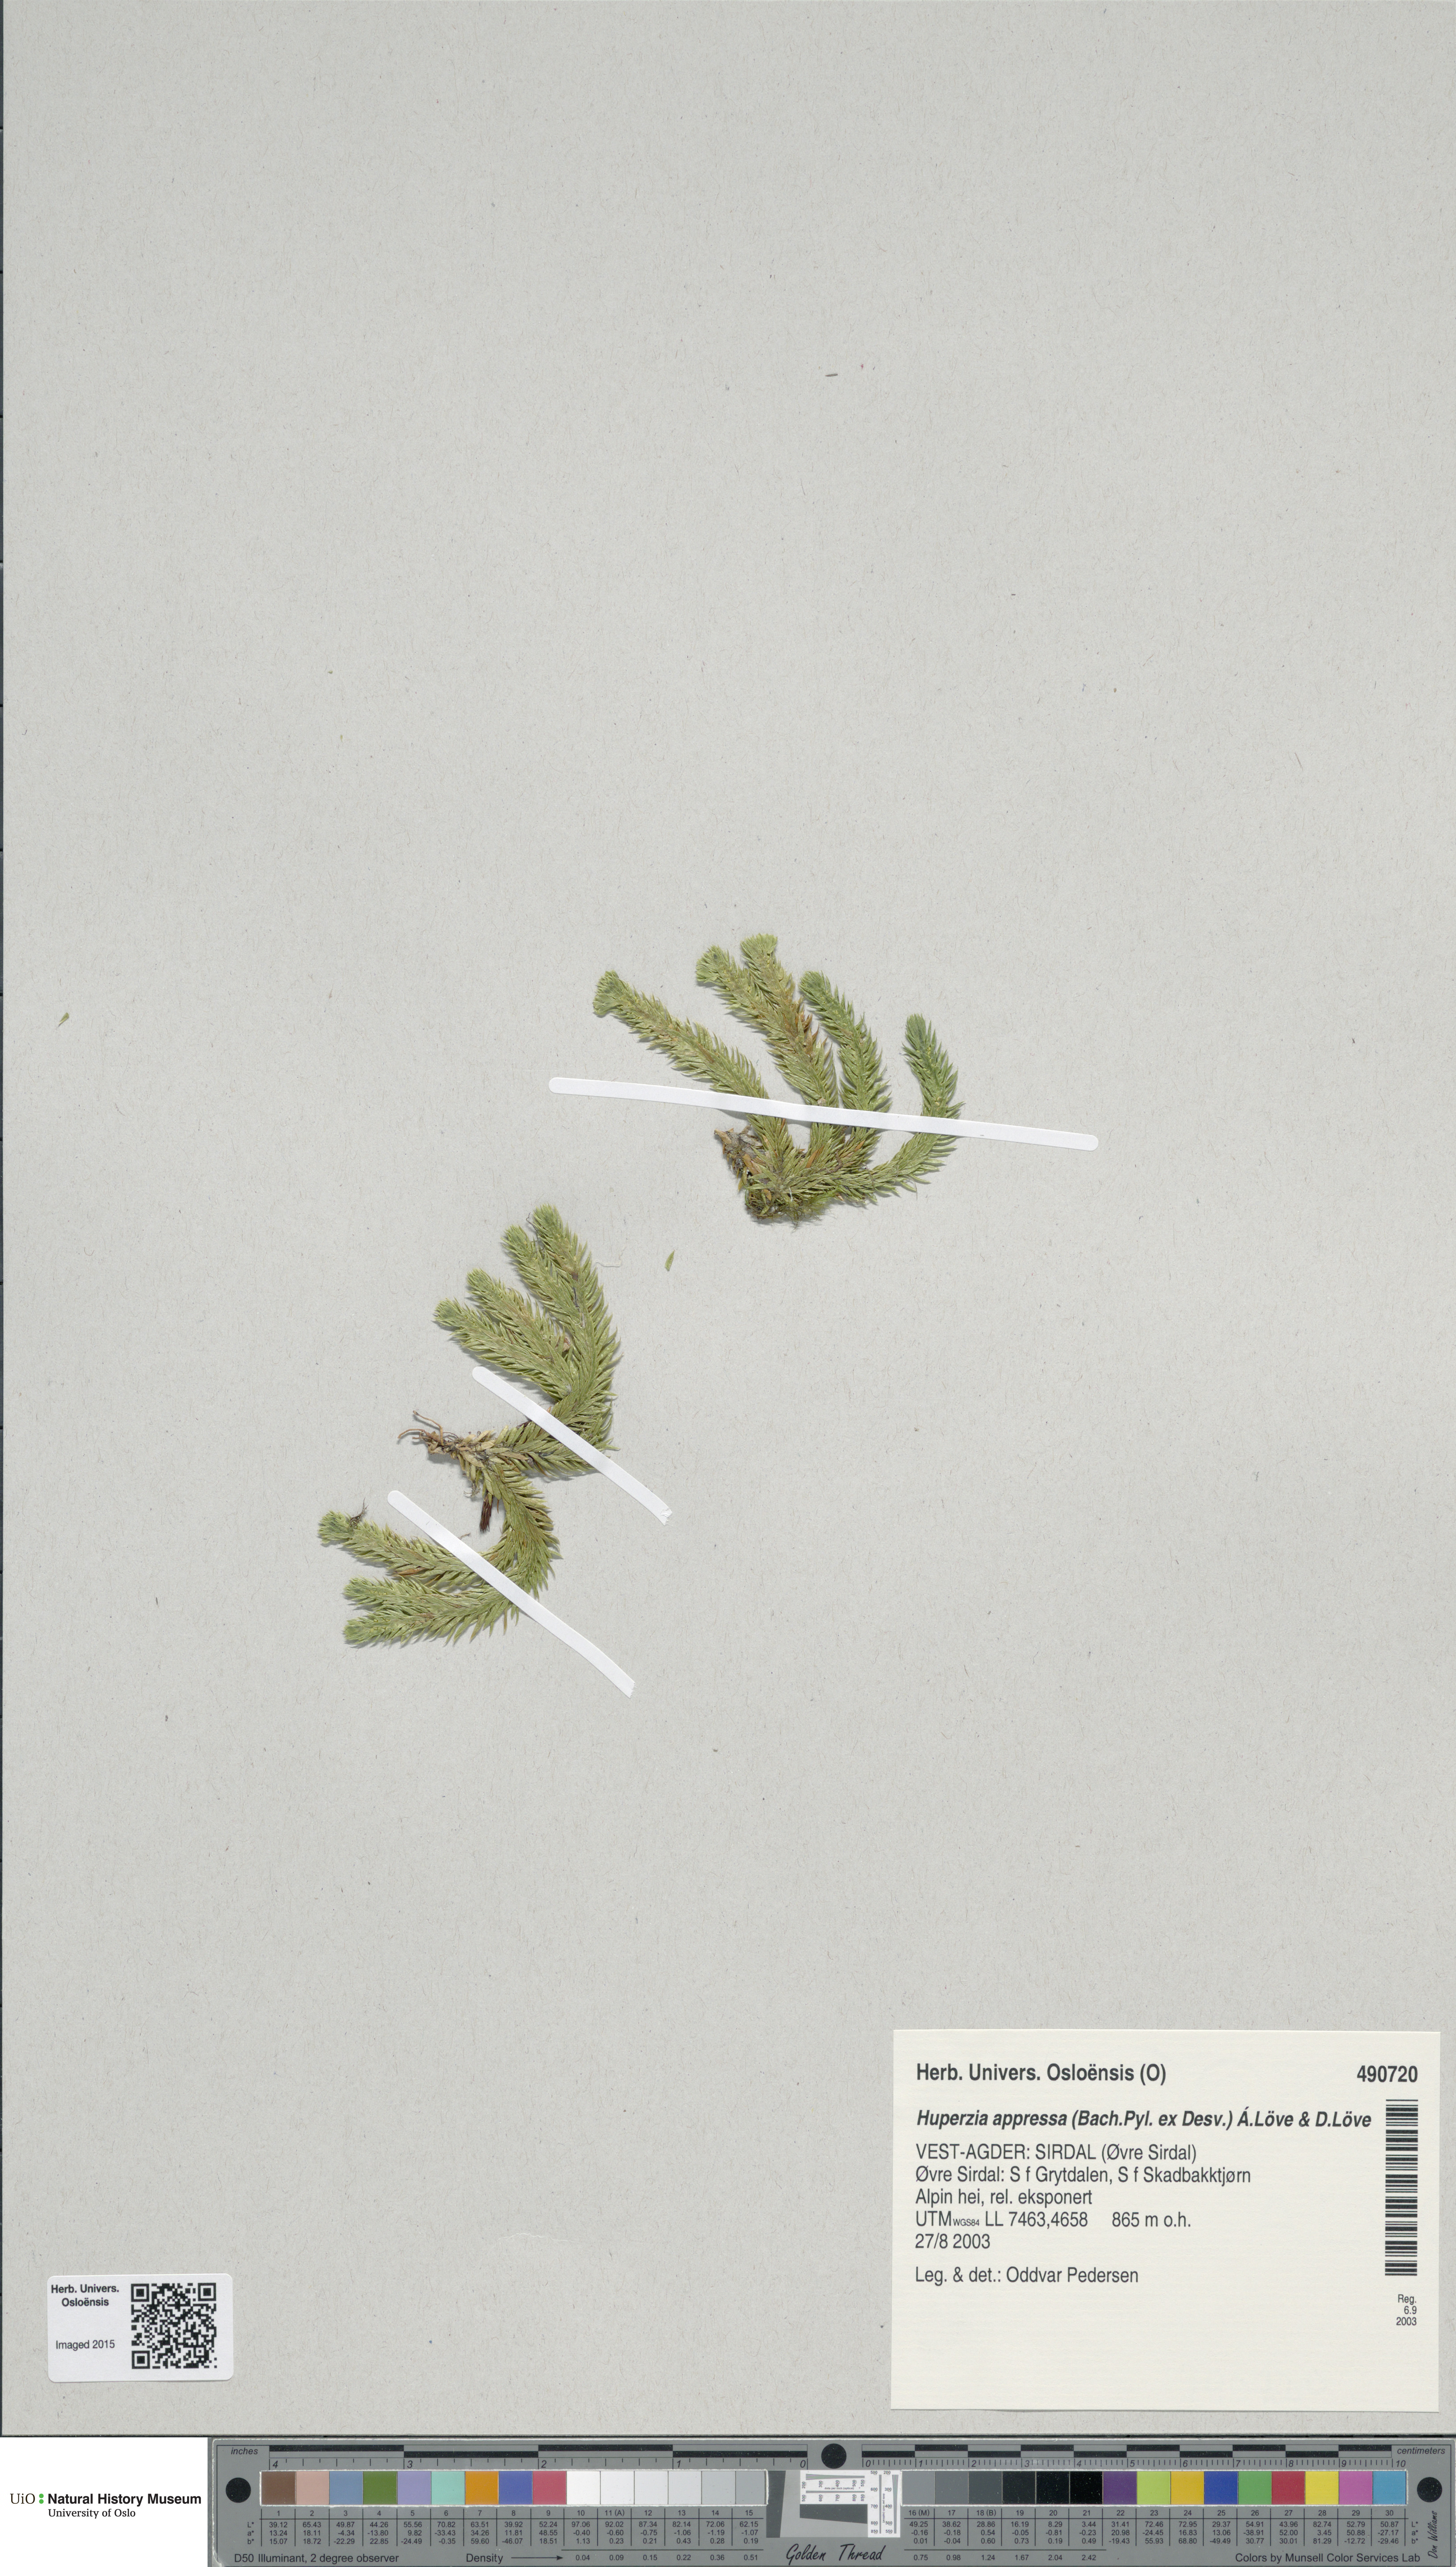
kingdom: Plantae
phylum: Tracheophyta
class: Lycopodiopsida
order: Lycopodiales
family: Lycopodiaceae
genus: Huperzia
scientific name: Huperzia selago
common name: Northern firmoss
